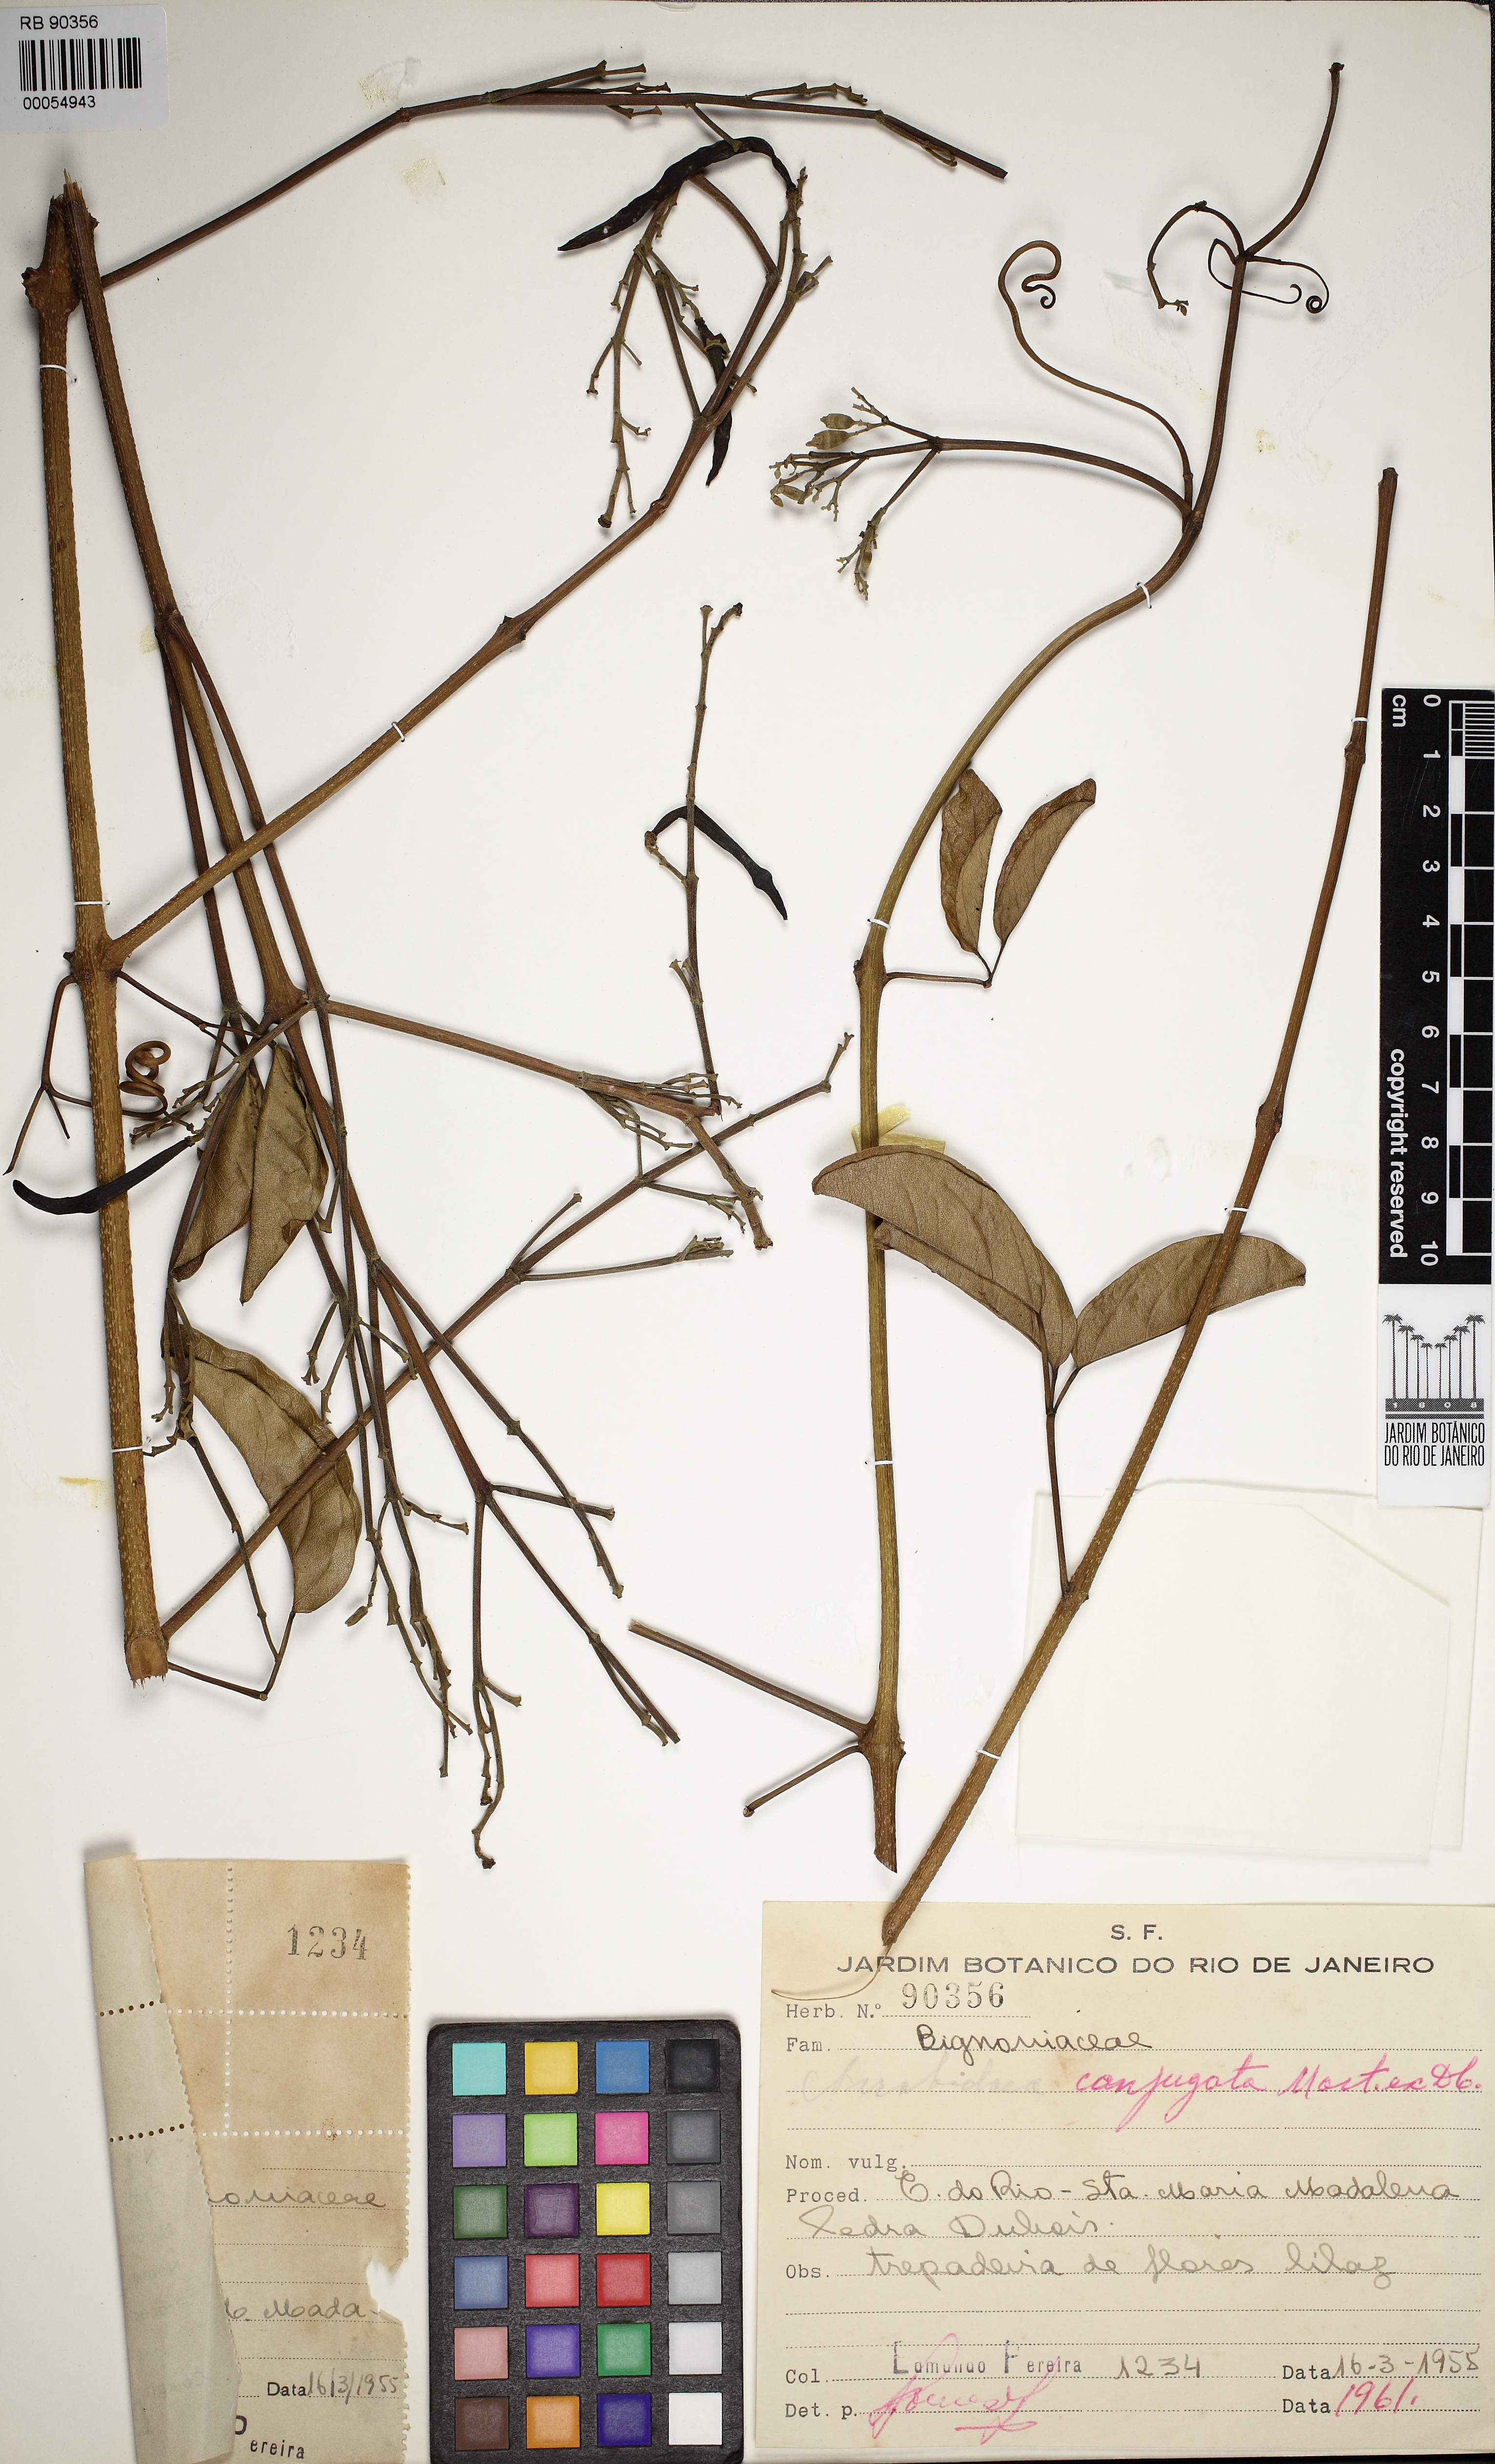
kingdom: Plantae
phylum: Tracheophyta
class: Magnoliopsida
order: Lamiales
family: Bignoniaceae
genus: Fridericia
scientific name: Fridericia conjugata
